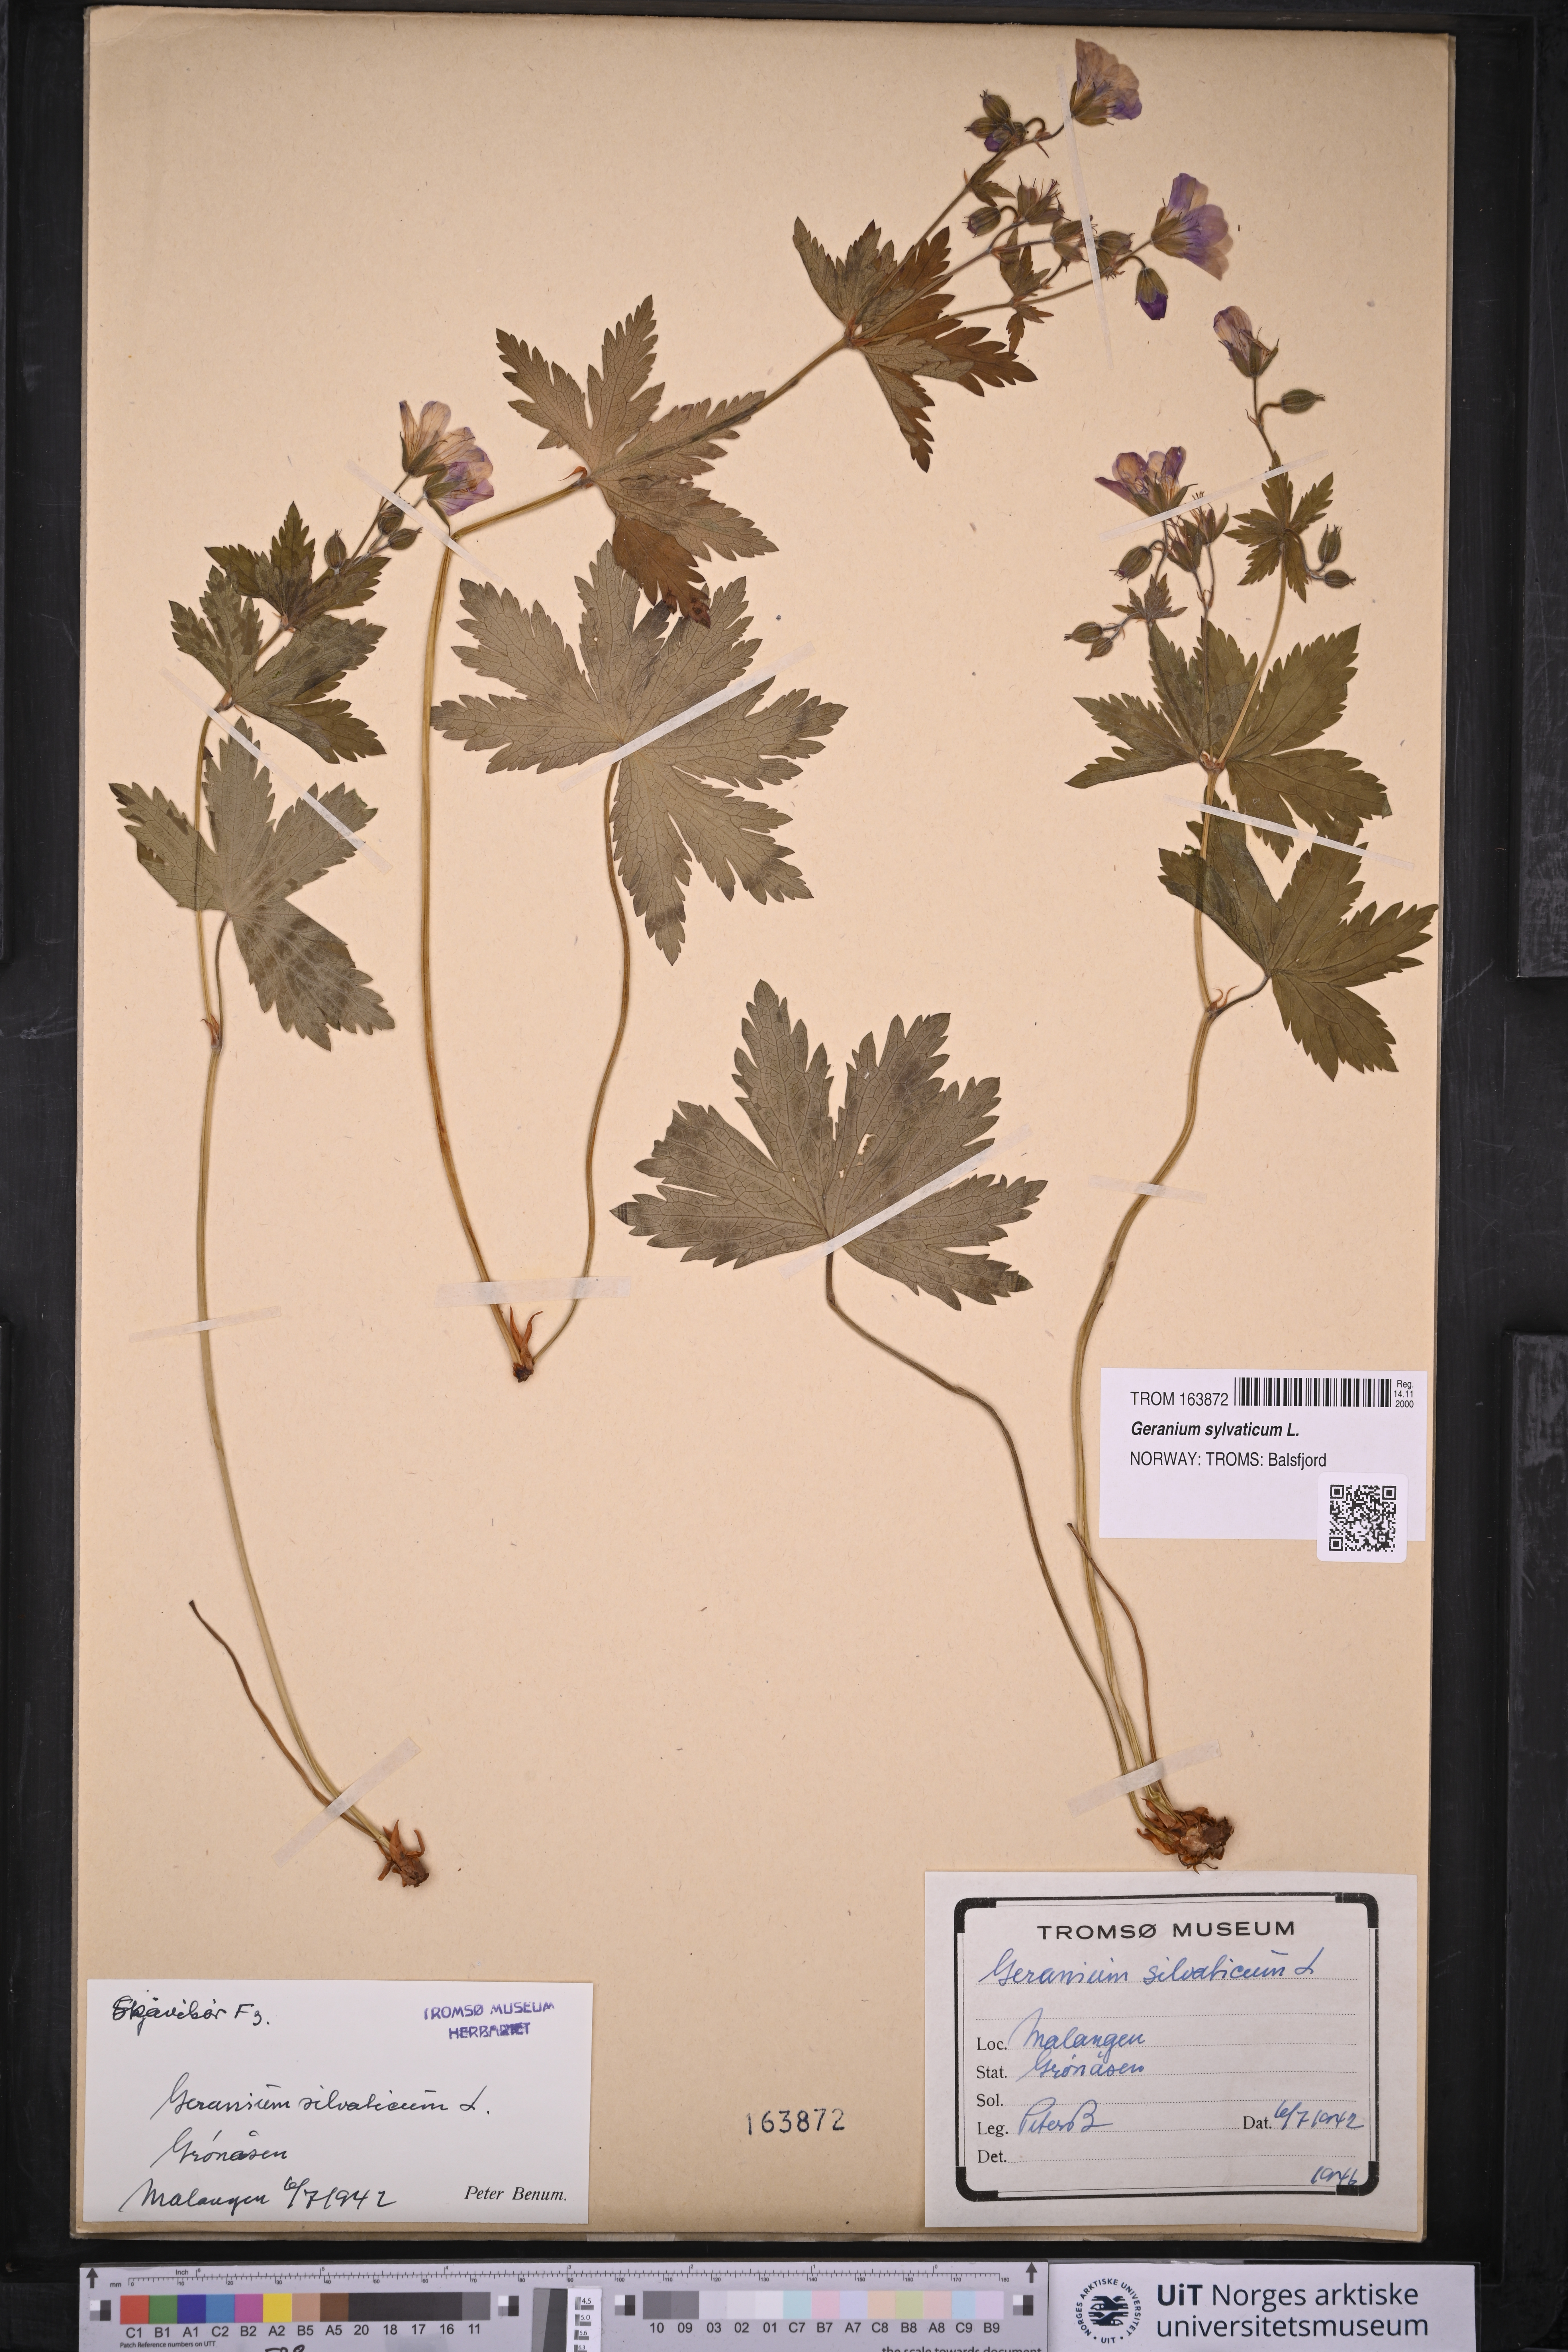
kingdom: Plantae
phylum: Tracheophyta
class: Magnoliopsida
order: Geraniales
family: Geraniaceae
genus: Geranium
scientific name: Geranium sylvaticum
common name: Wood crane's-bill
